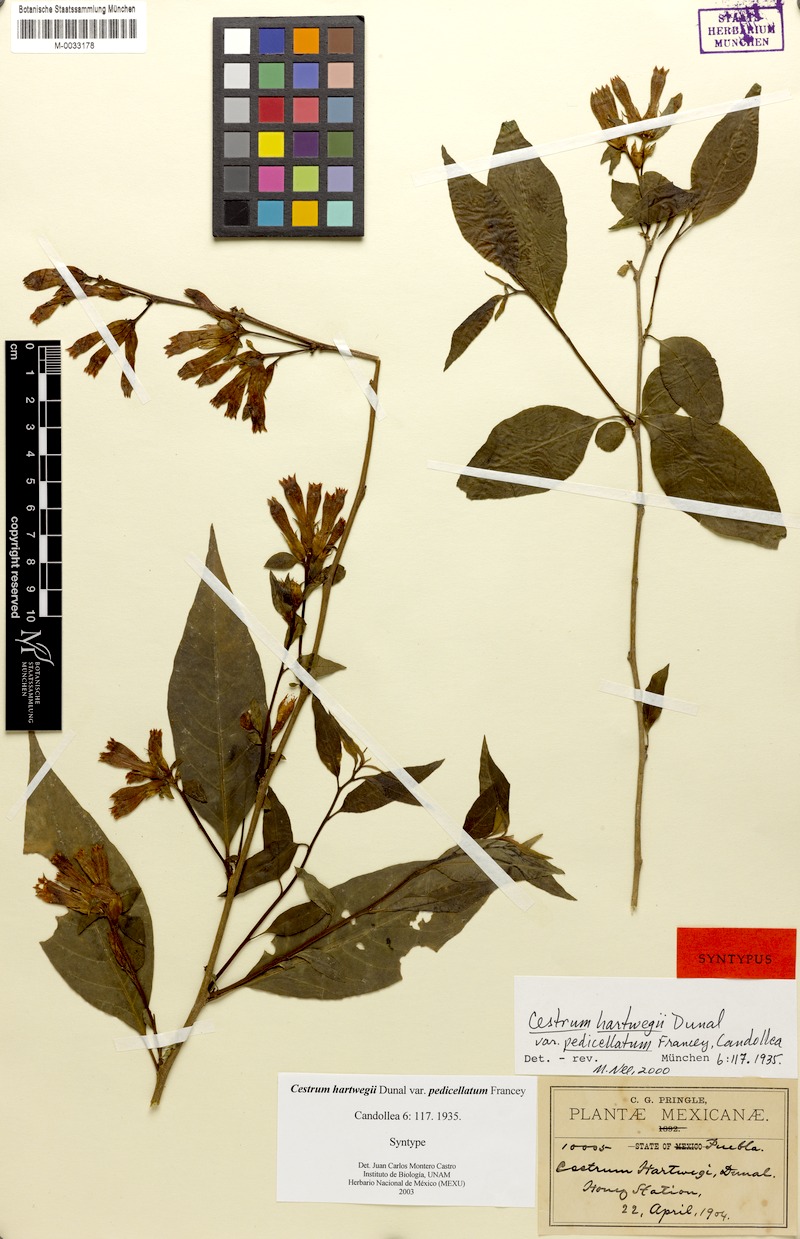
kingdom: Plantae
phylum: Tracheophyta
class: Magnoliopsida
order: Solanales
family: Solanaceae
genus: Cestrum
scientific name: Cestrum hartwegii
